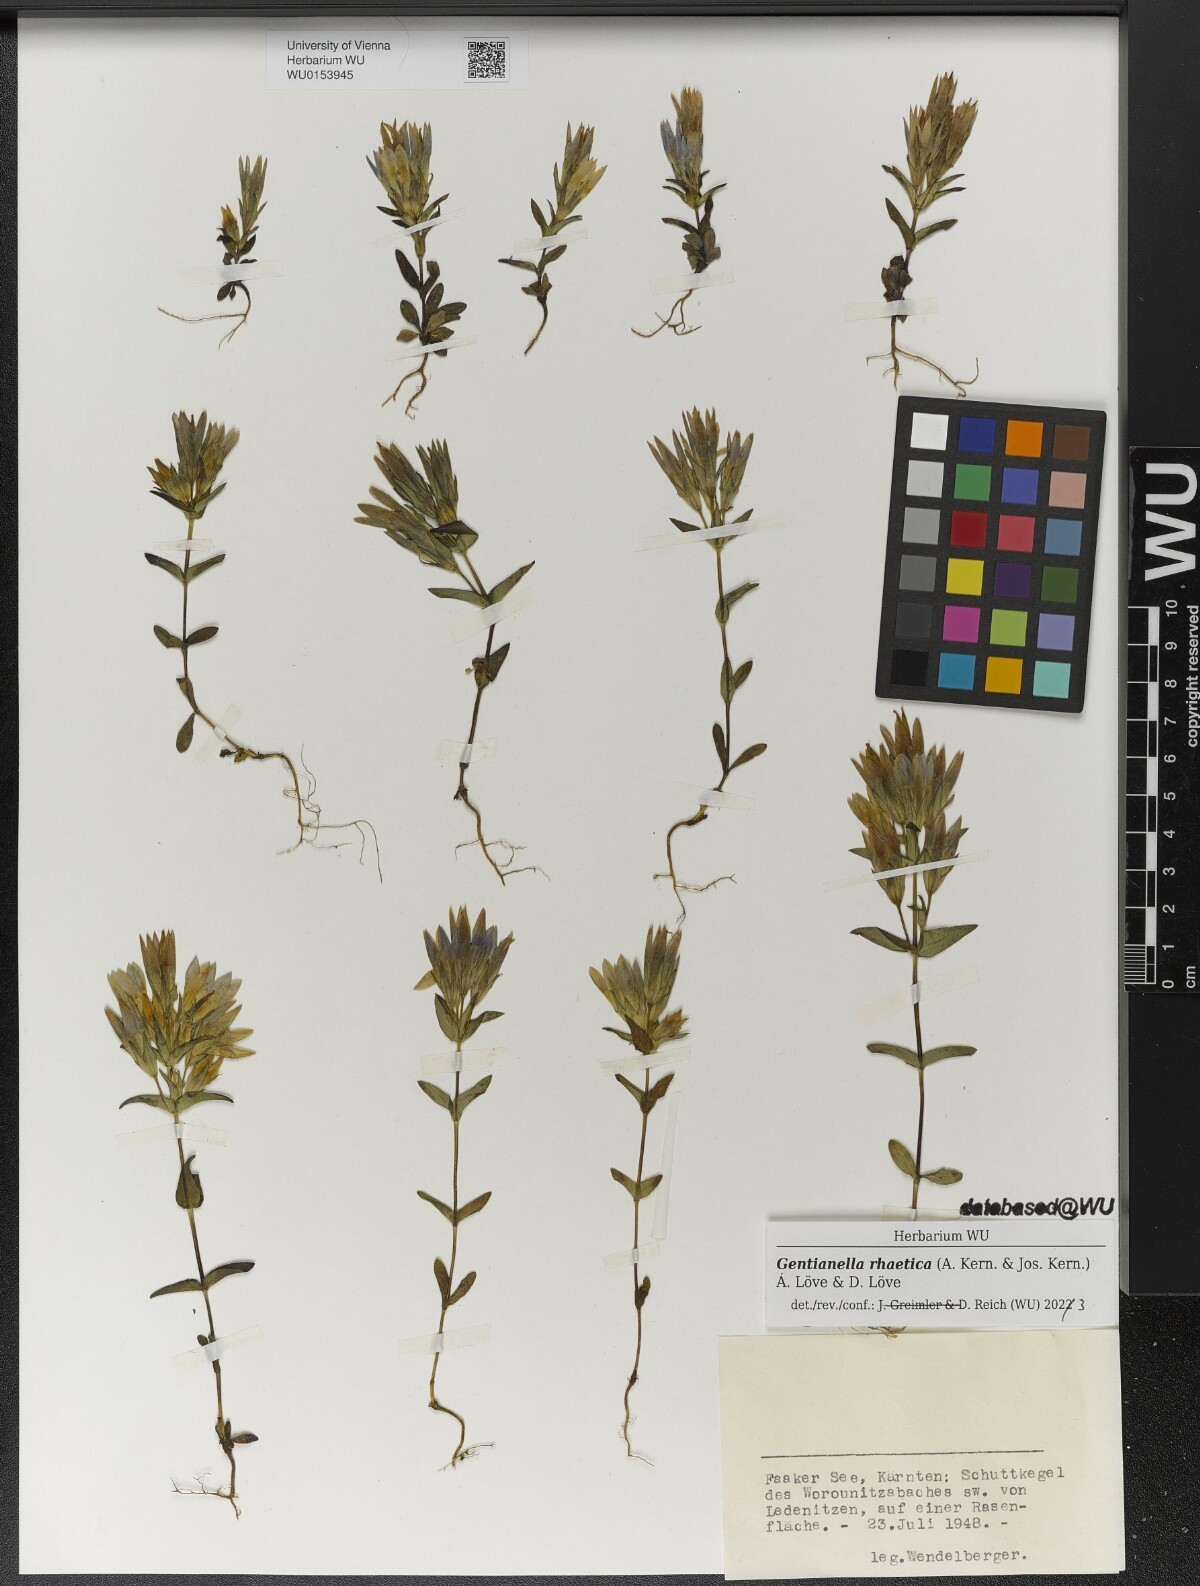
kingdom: Plantae
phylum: Tracheophyta
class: Magnoliopsida
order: Gentianales
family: Gentianaceae
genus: Gentianella
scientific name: Gentianella rhaetica
